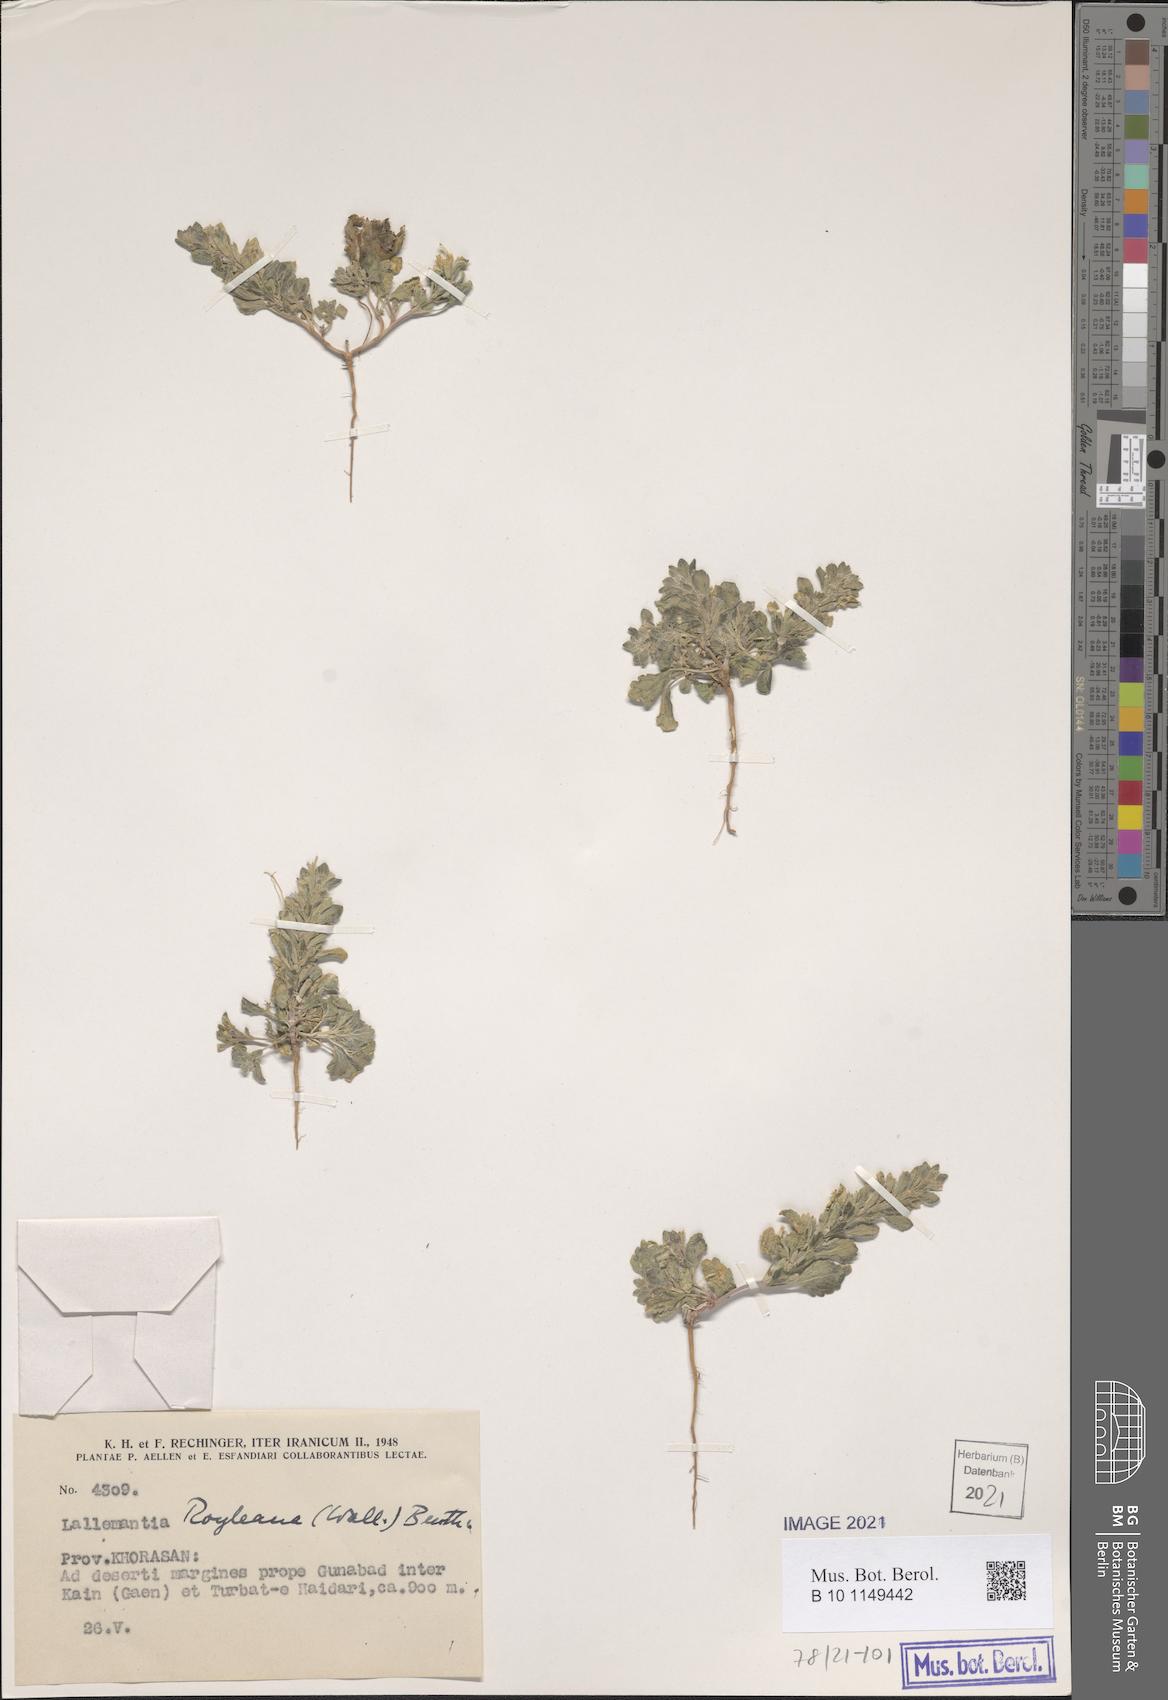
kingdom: Plantae
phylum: Tracheophyta
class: Magnoliopsida
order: Lamiales
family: Lamiaceae
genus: Lallemantia
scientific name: Lallemantia royleana
